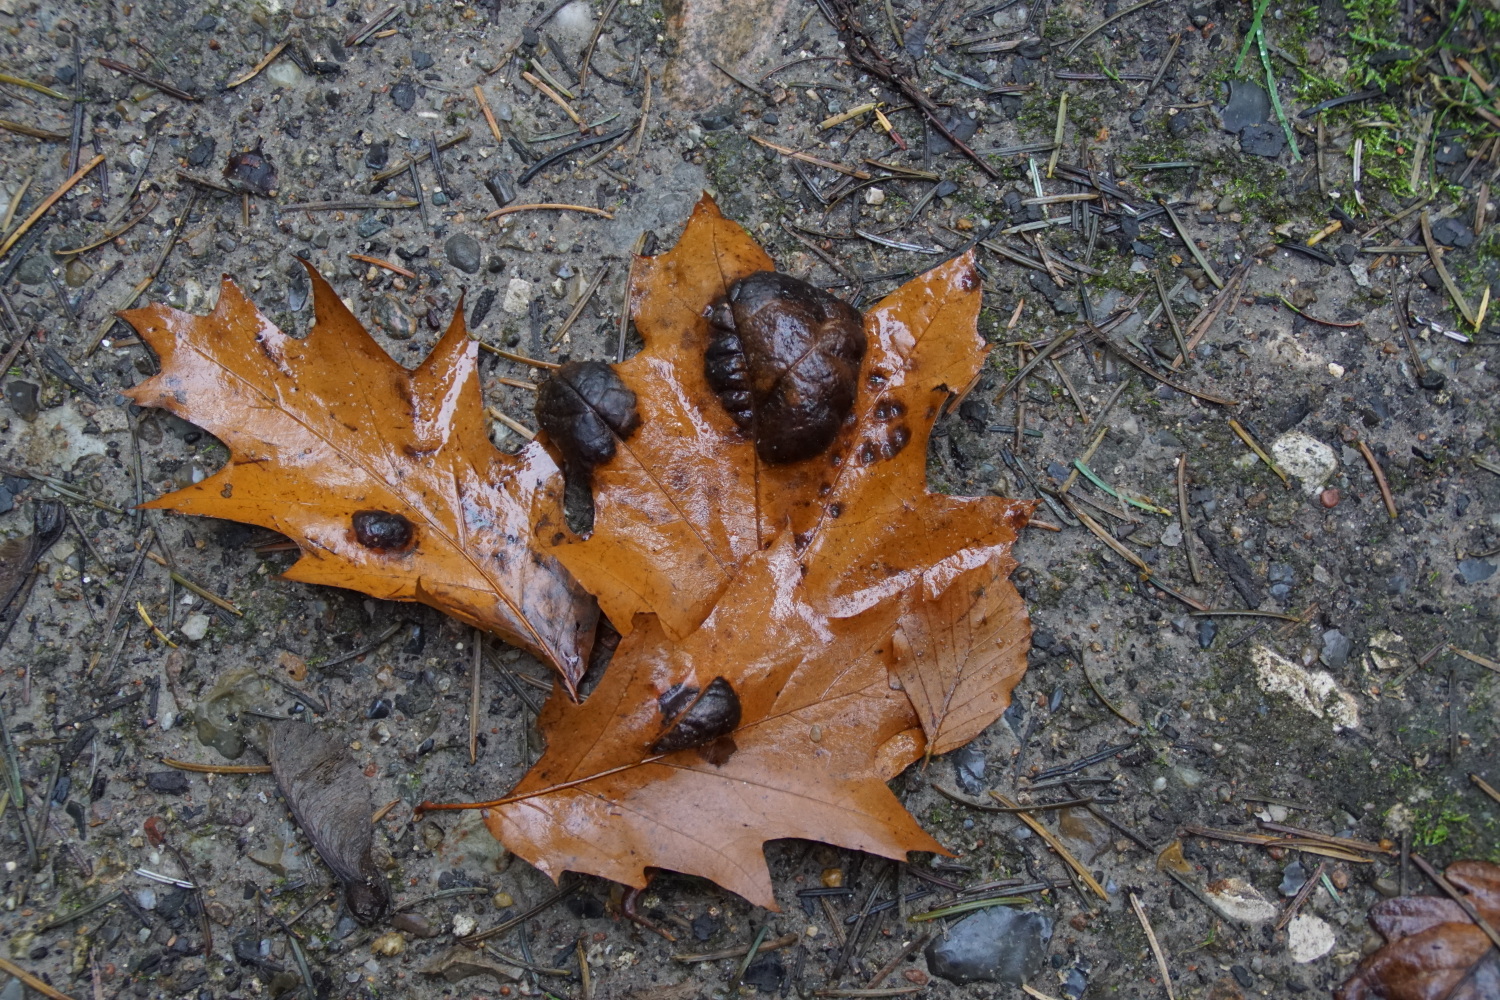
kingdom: Fungi
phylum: Ascomycota
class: Taphrinomycetes
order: Taphrinales
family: Taphrinaceae
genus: Taphrina
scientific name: Taphrina caerulescens
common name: Oak leaf blister
